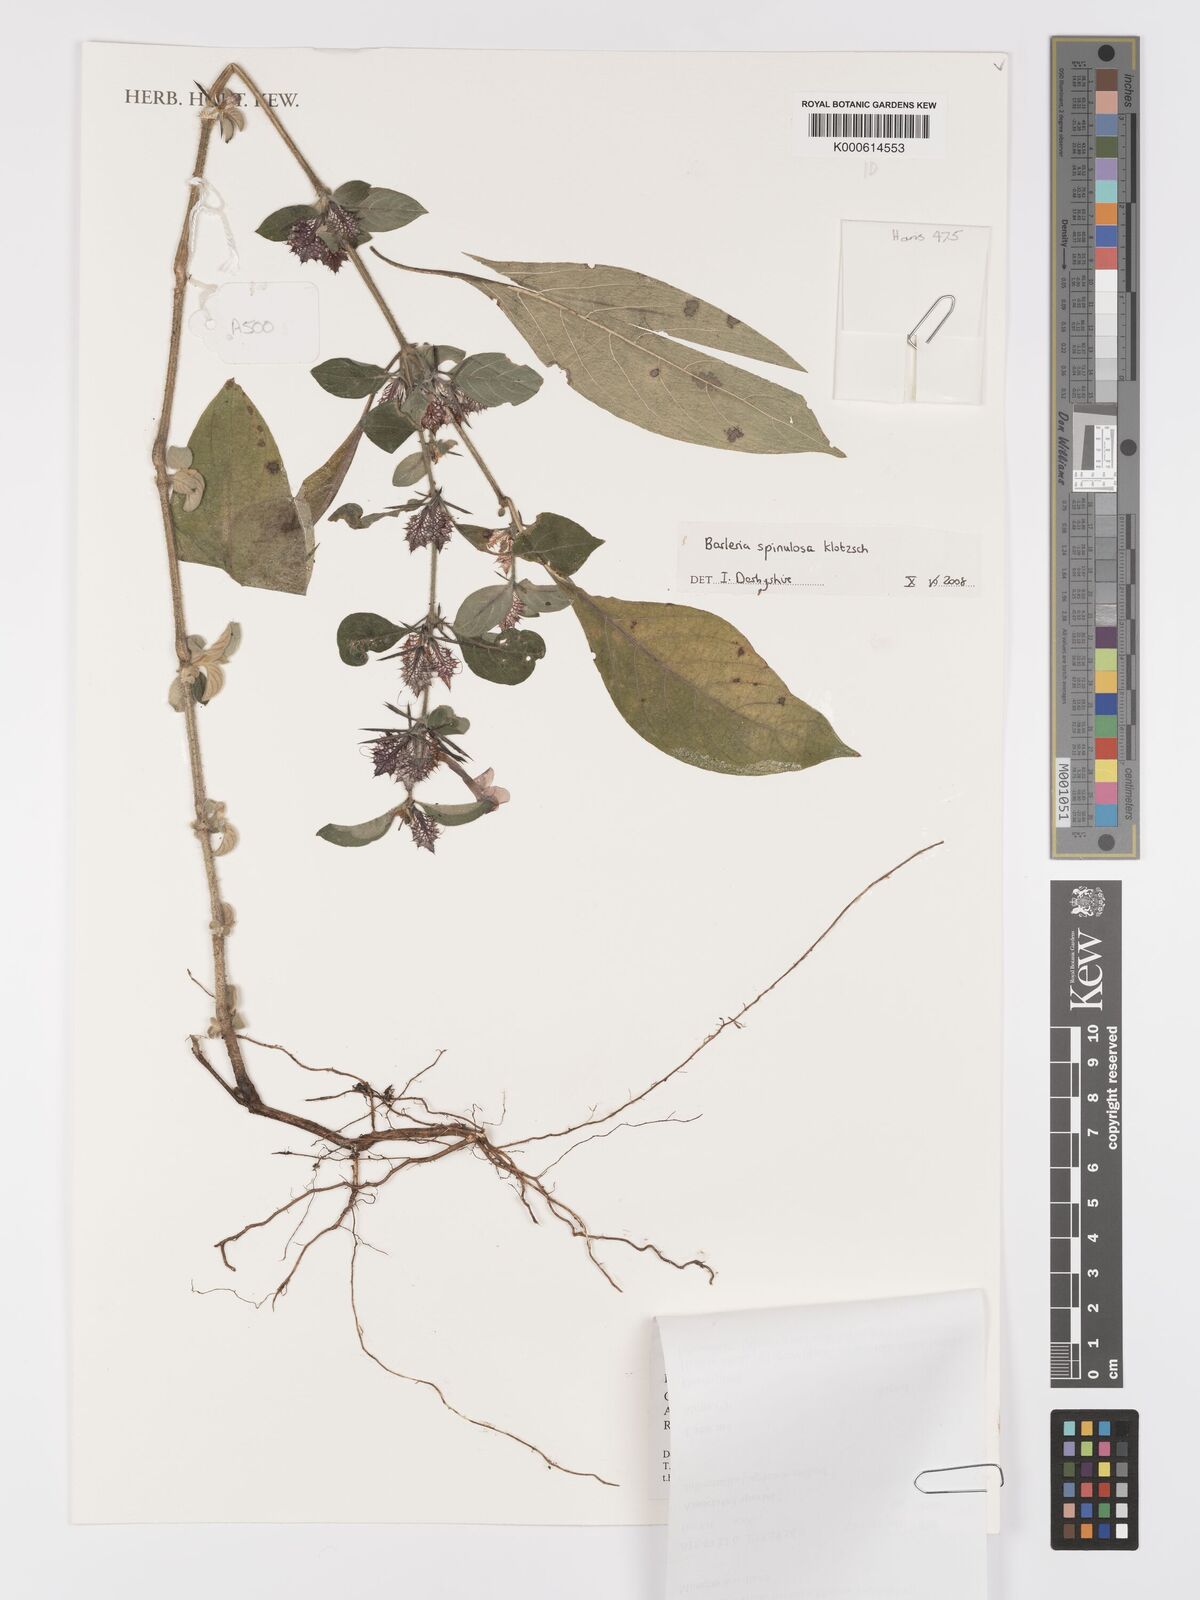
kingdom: Plantae
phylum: Tracheophyta
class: Magnoliopsida
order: Lamiales
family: Acanthaceae
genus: Barleria
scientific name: Barleria spinulosa
